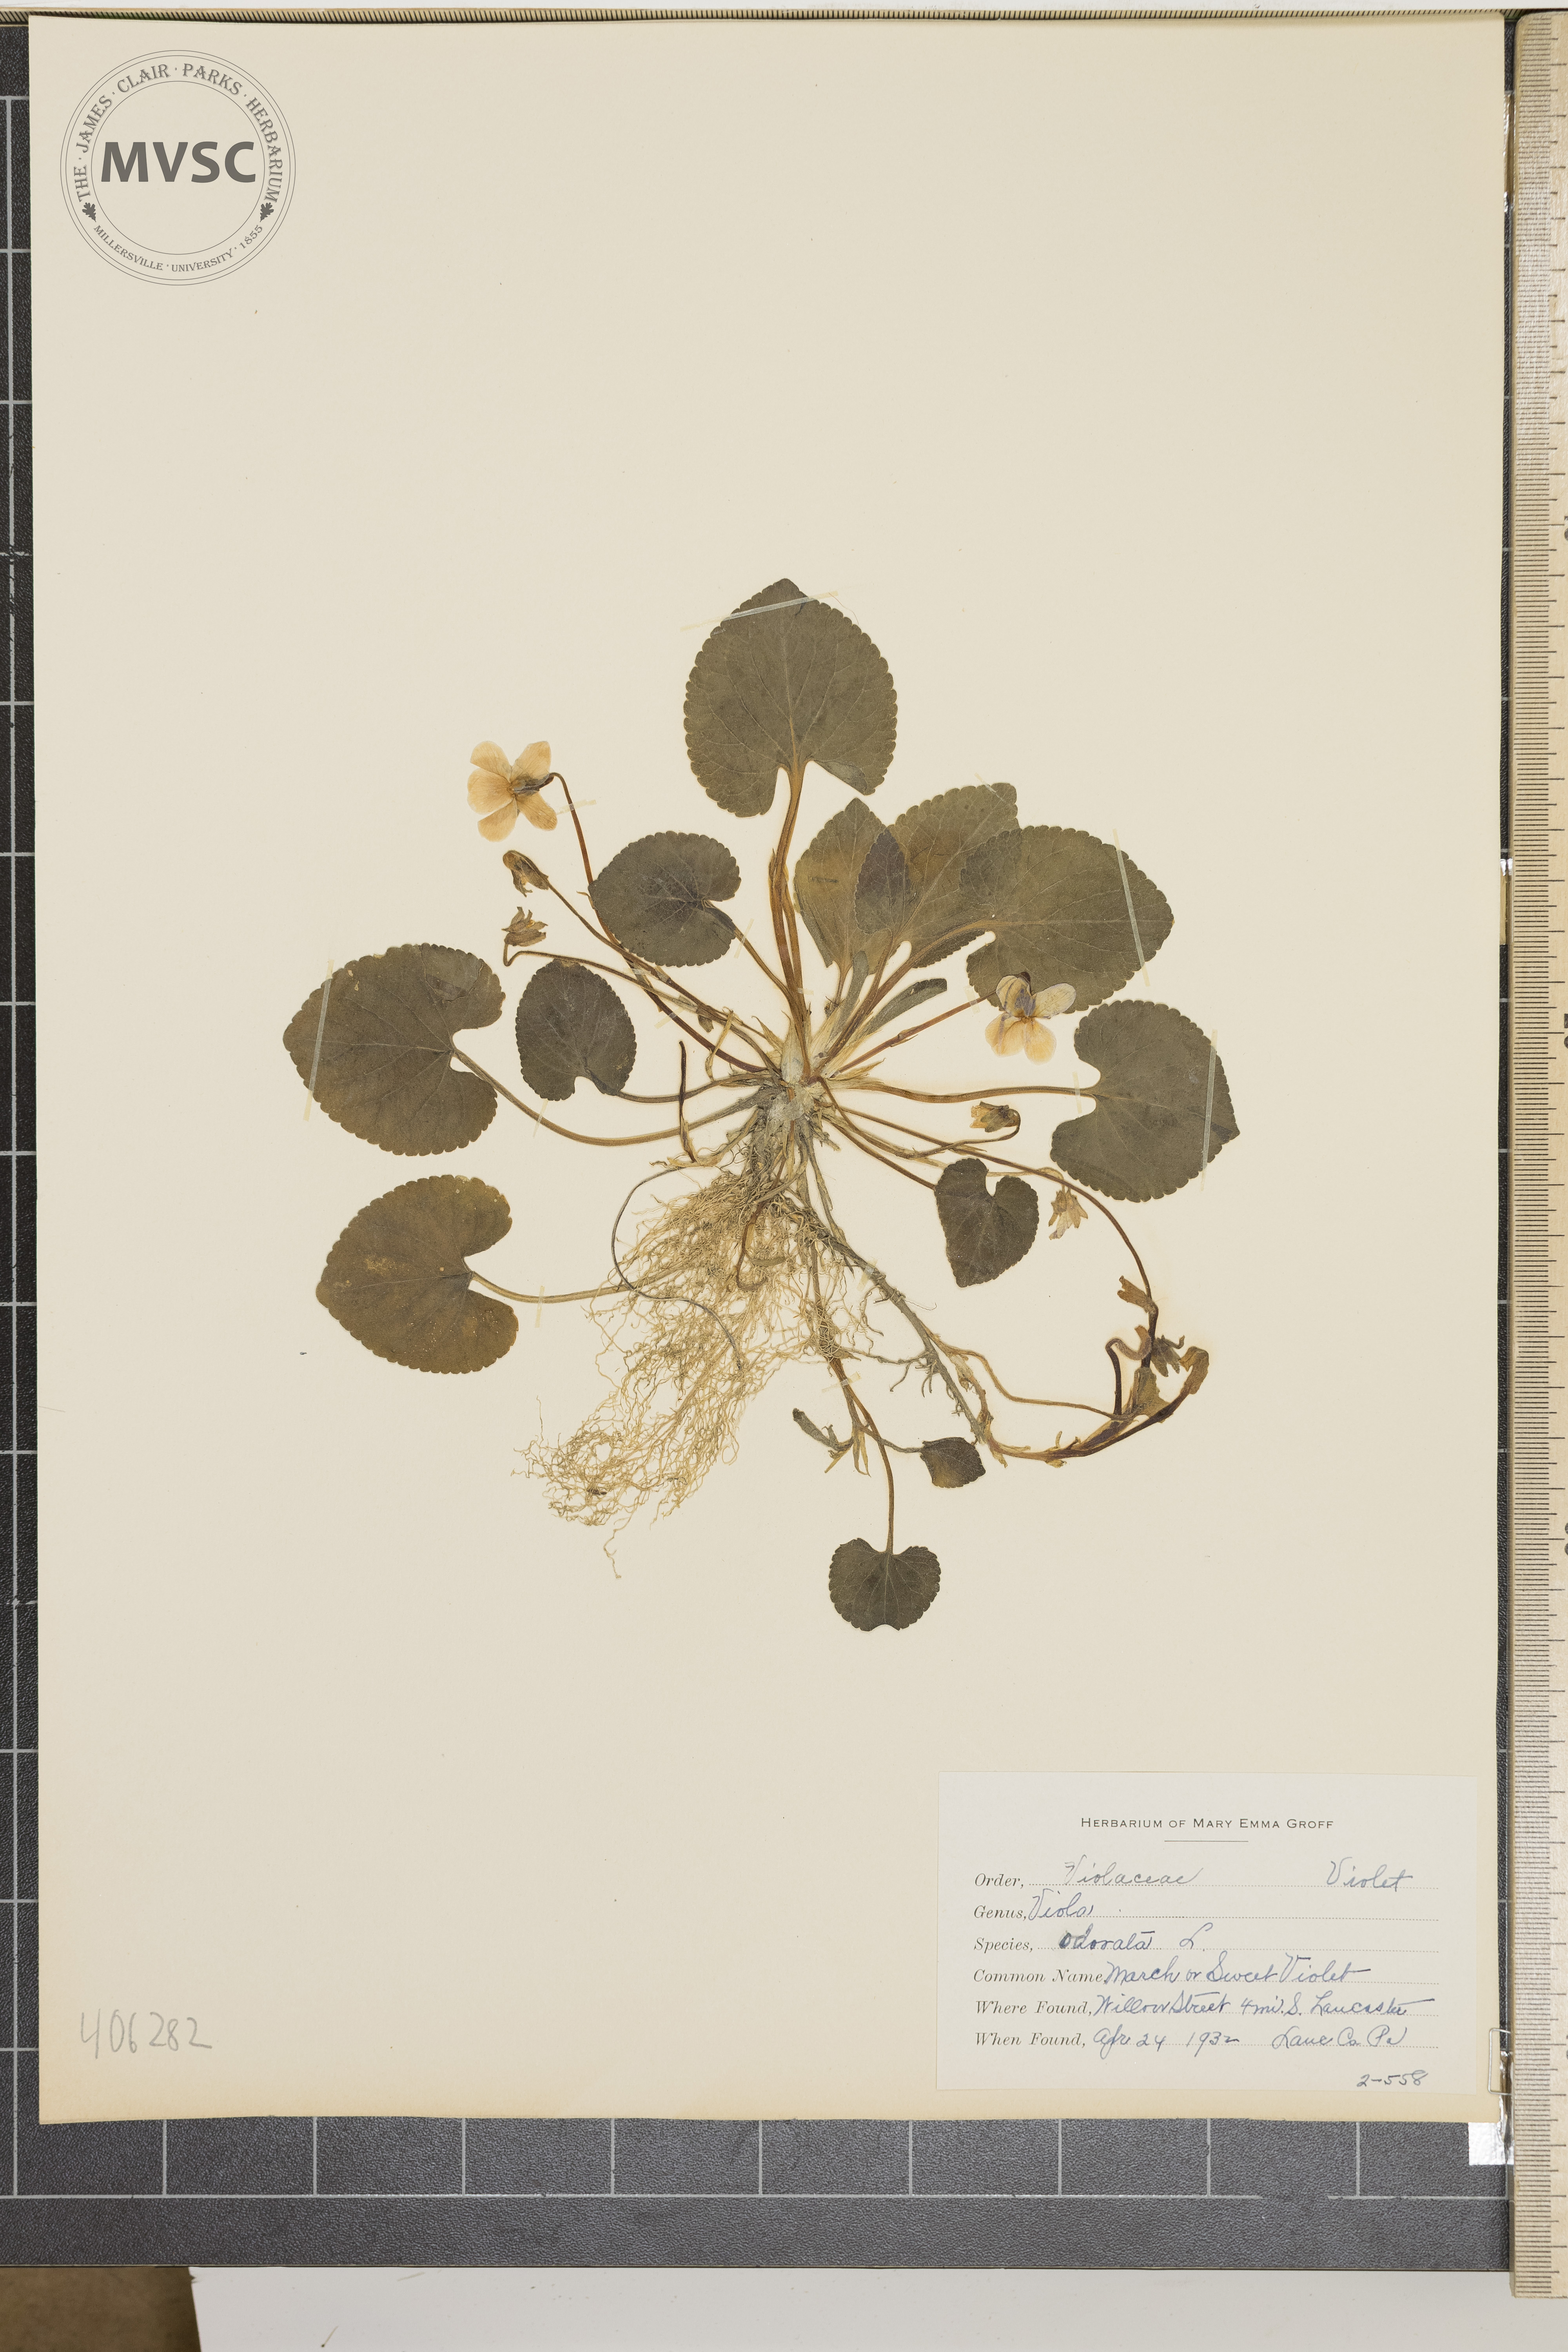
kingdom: Plantae
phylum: Tracheophyta
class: Magnoliopsida
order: Malpighiales
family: Violaceae
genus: Viola
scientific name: Viola odorata
